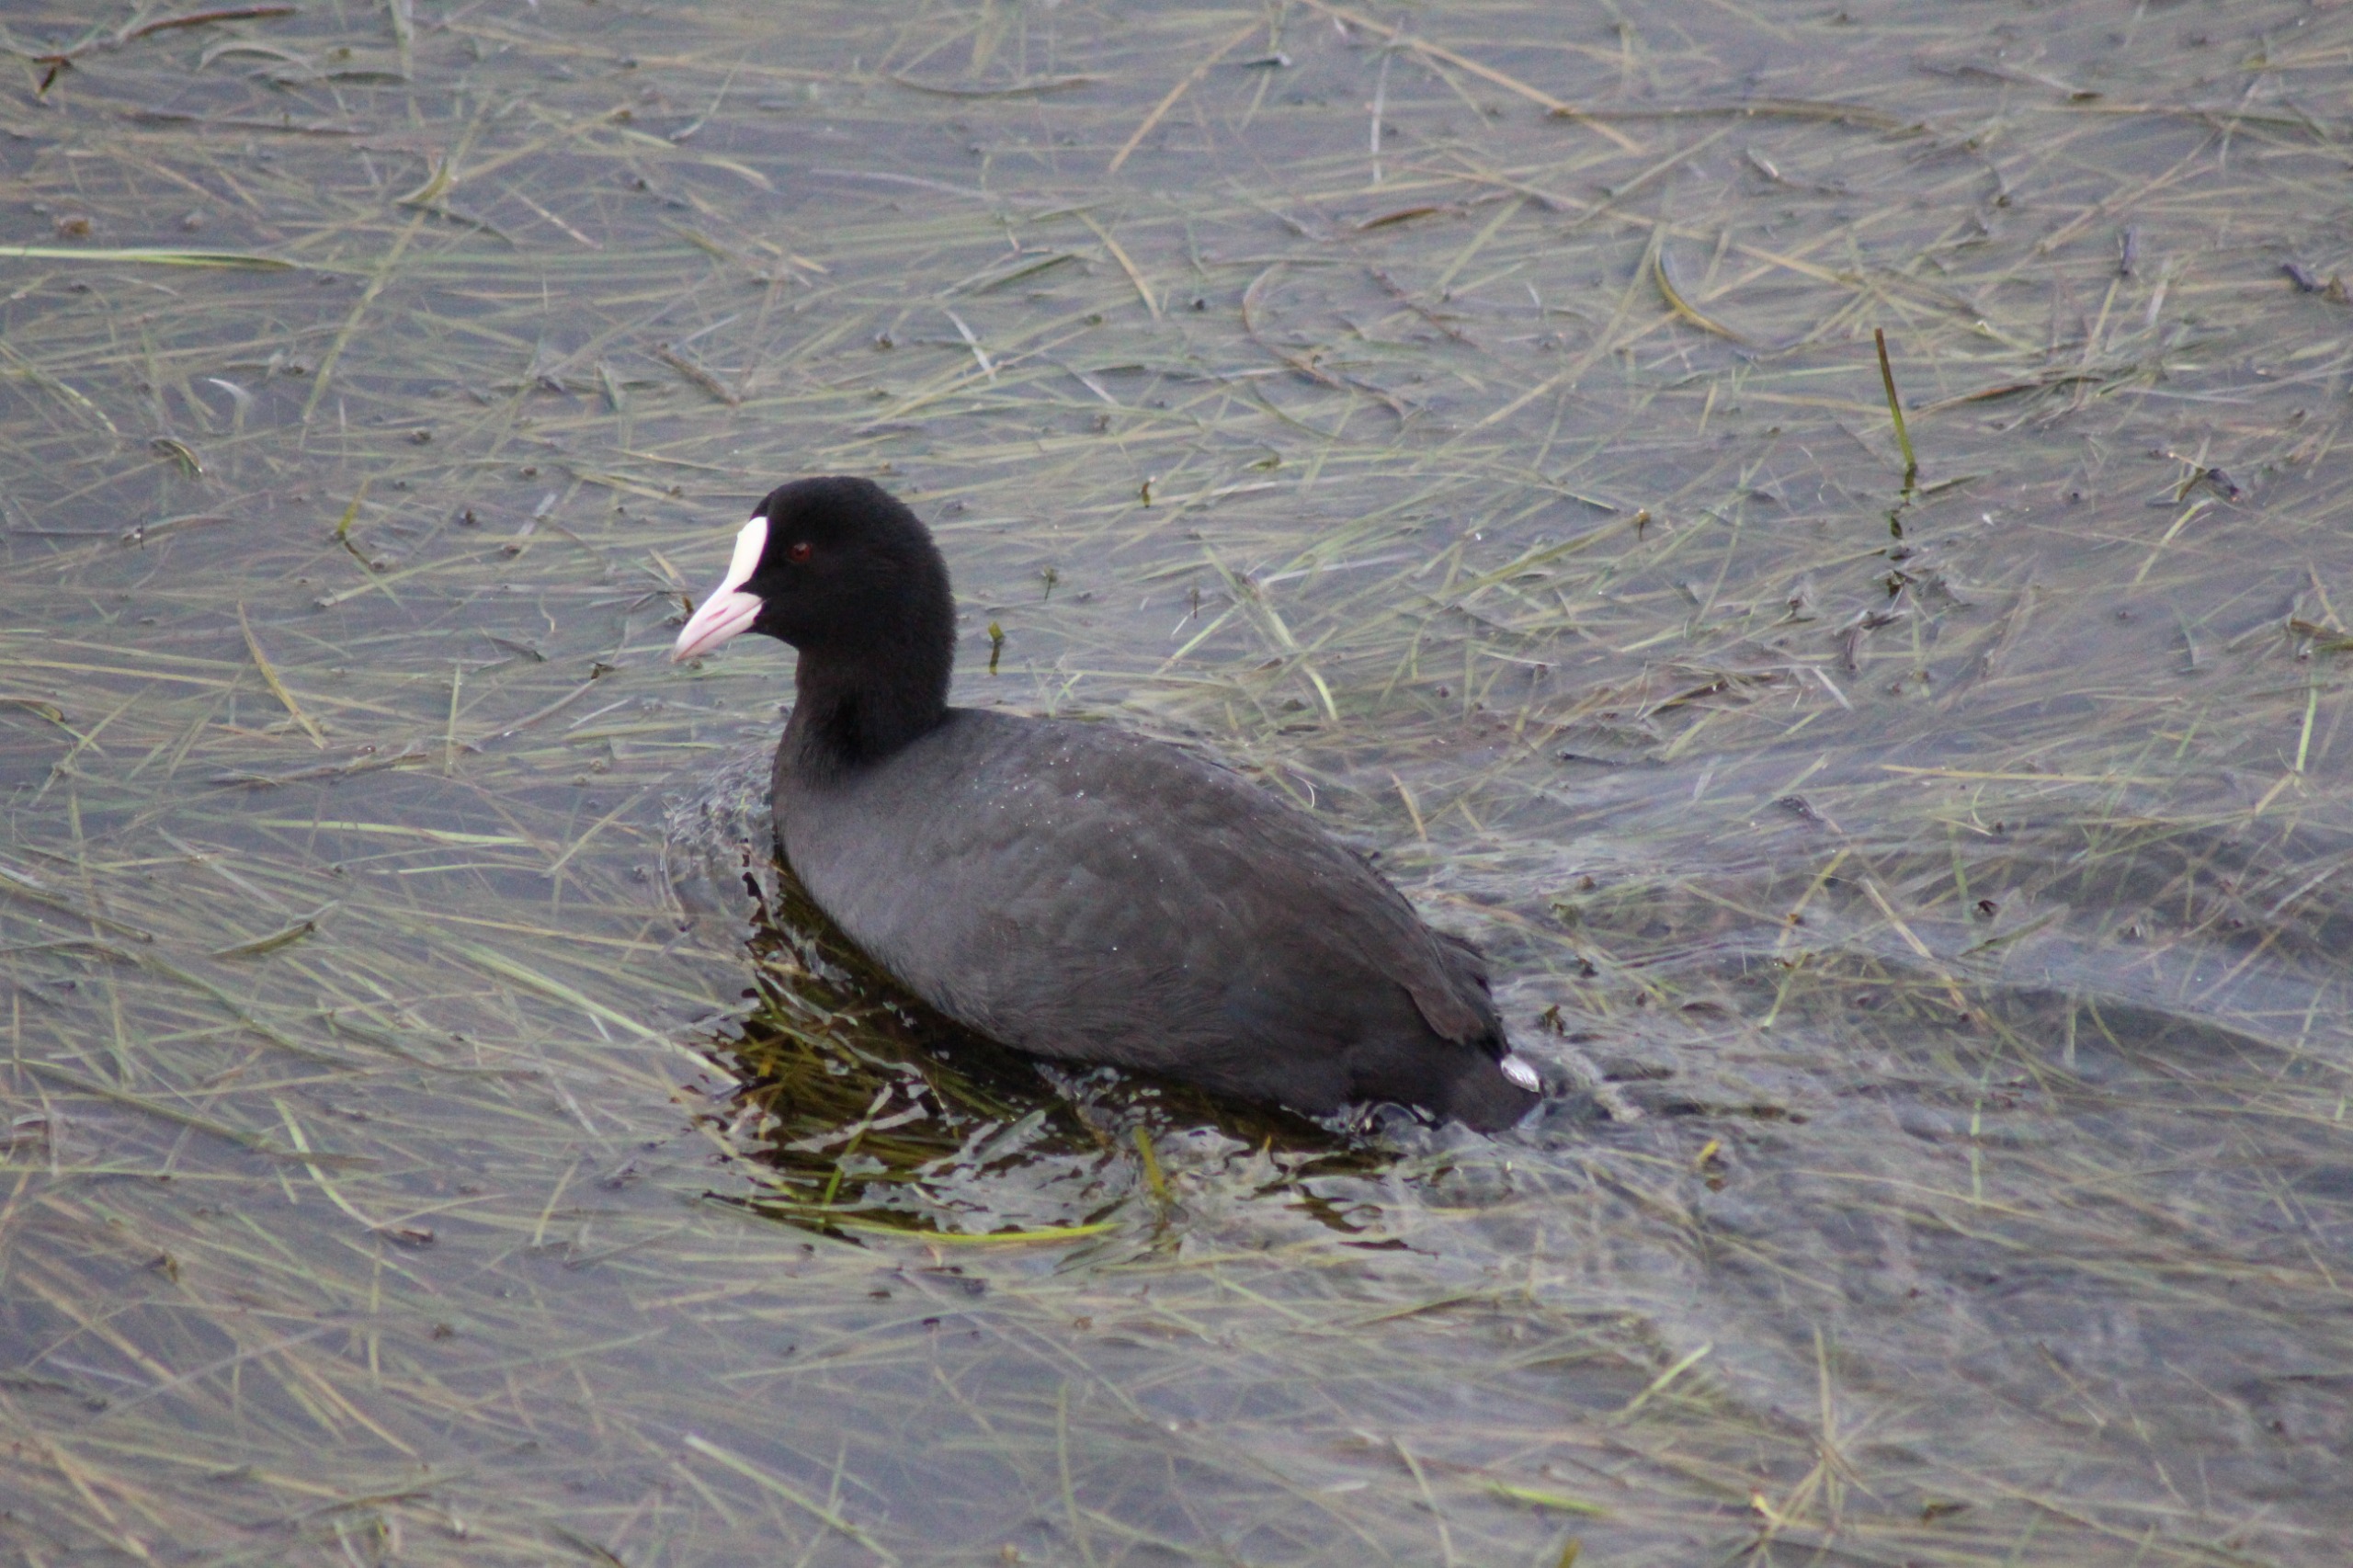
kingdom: Animalia
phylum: Chordata
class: Aves
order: Gruiformes
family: Rallidae
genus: Fulica
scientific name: Fulica atra
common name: Blishøne
